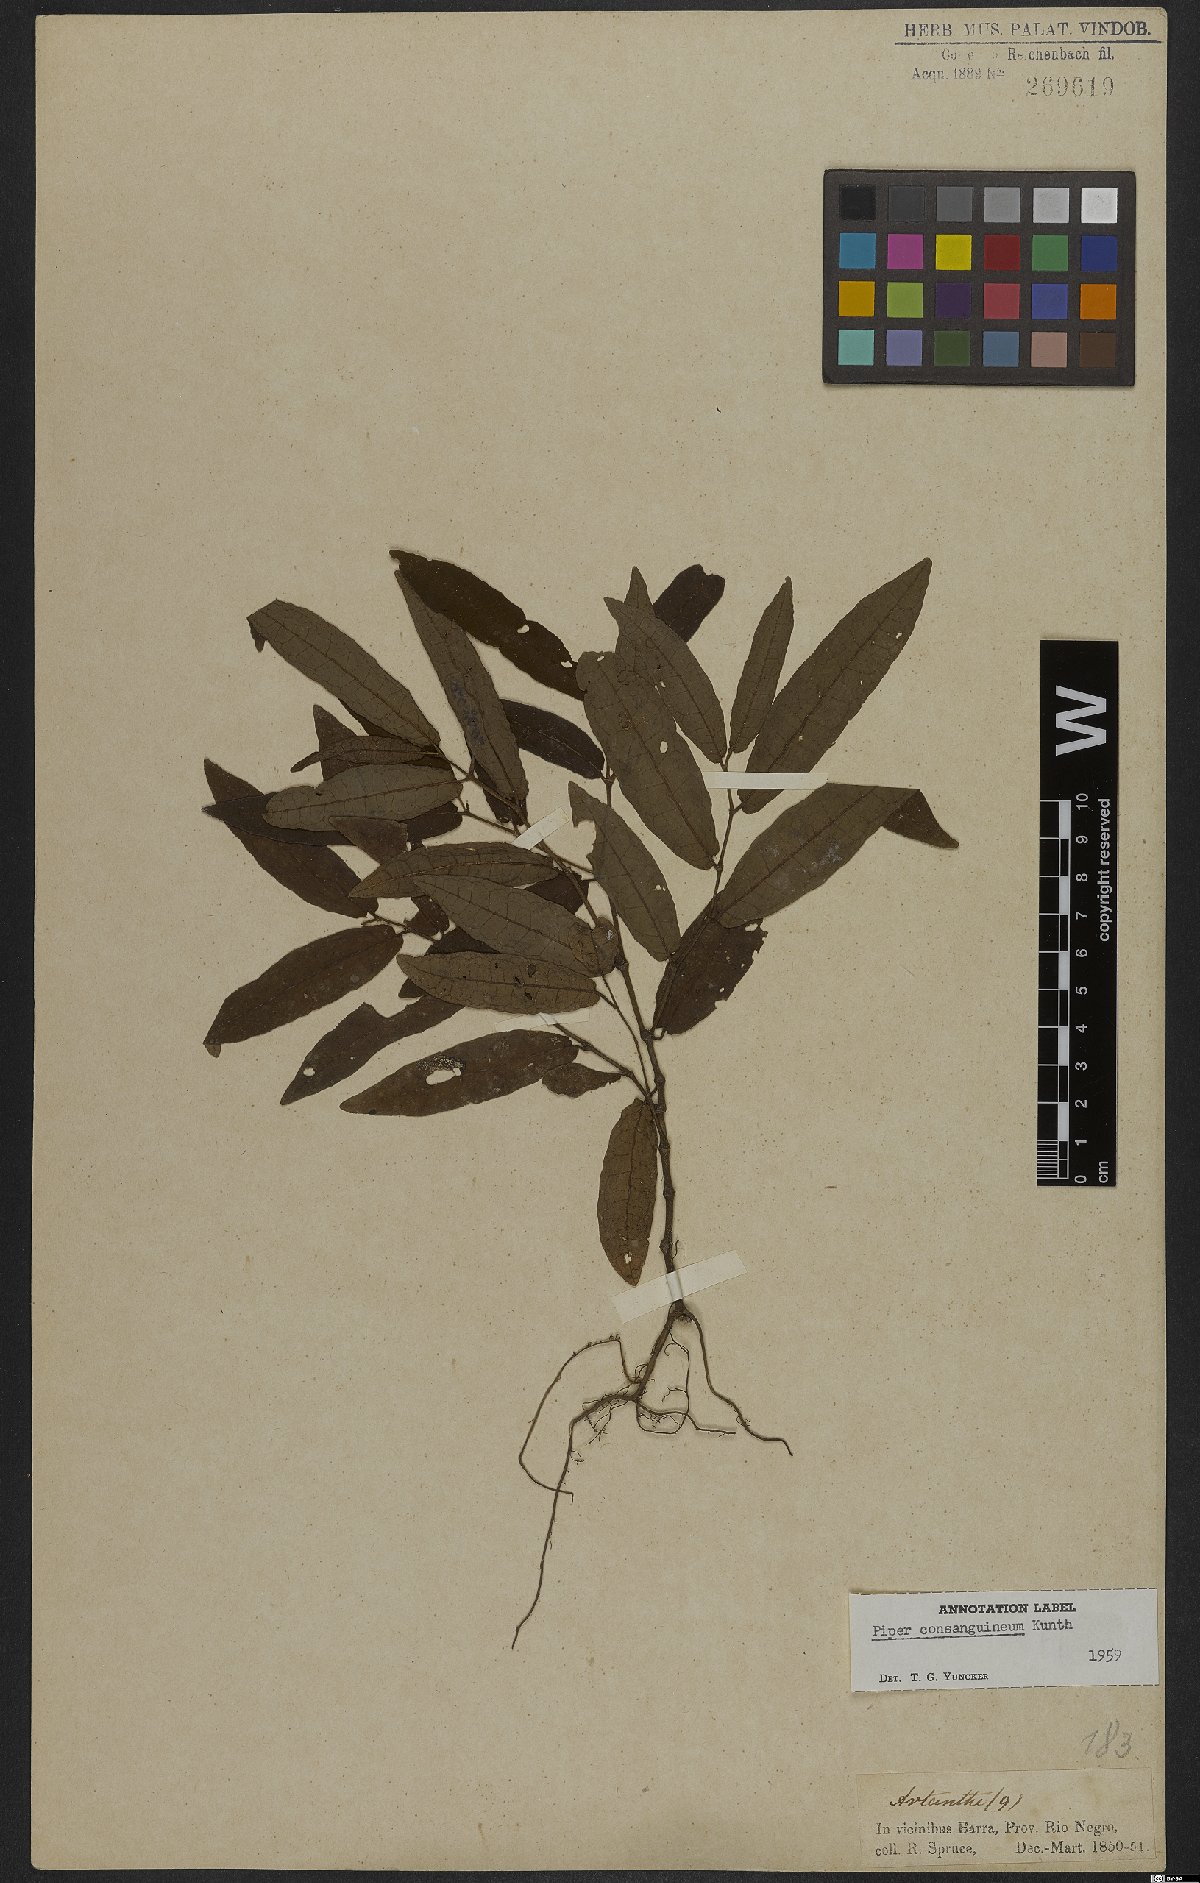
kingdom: Plantae
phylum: Tracheophyta
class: Magnoliopsida
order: Piperales
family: Piperaceae
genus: Piper
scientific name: Piper consanguineum
